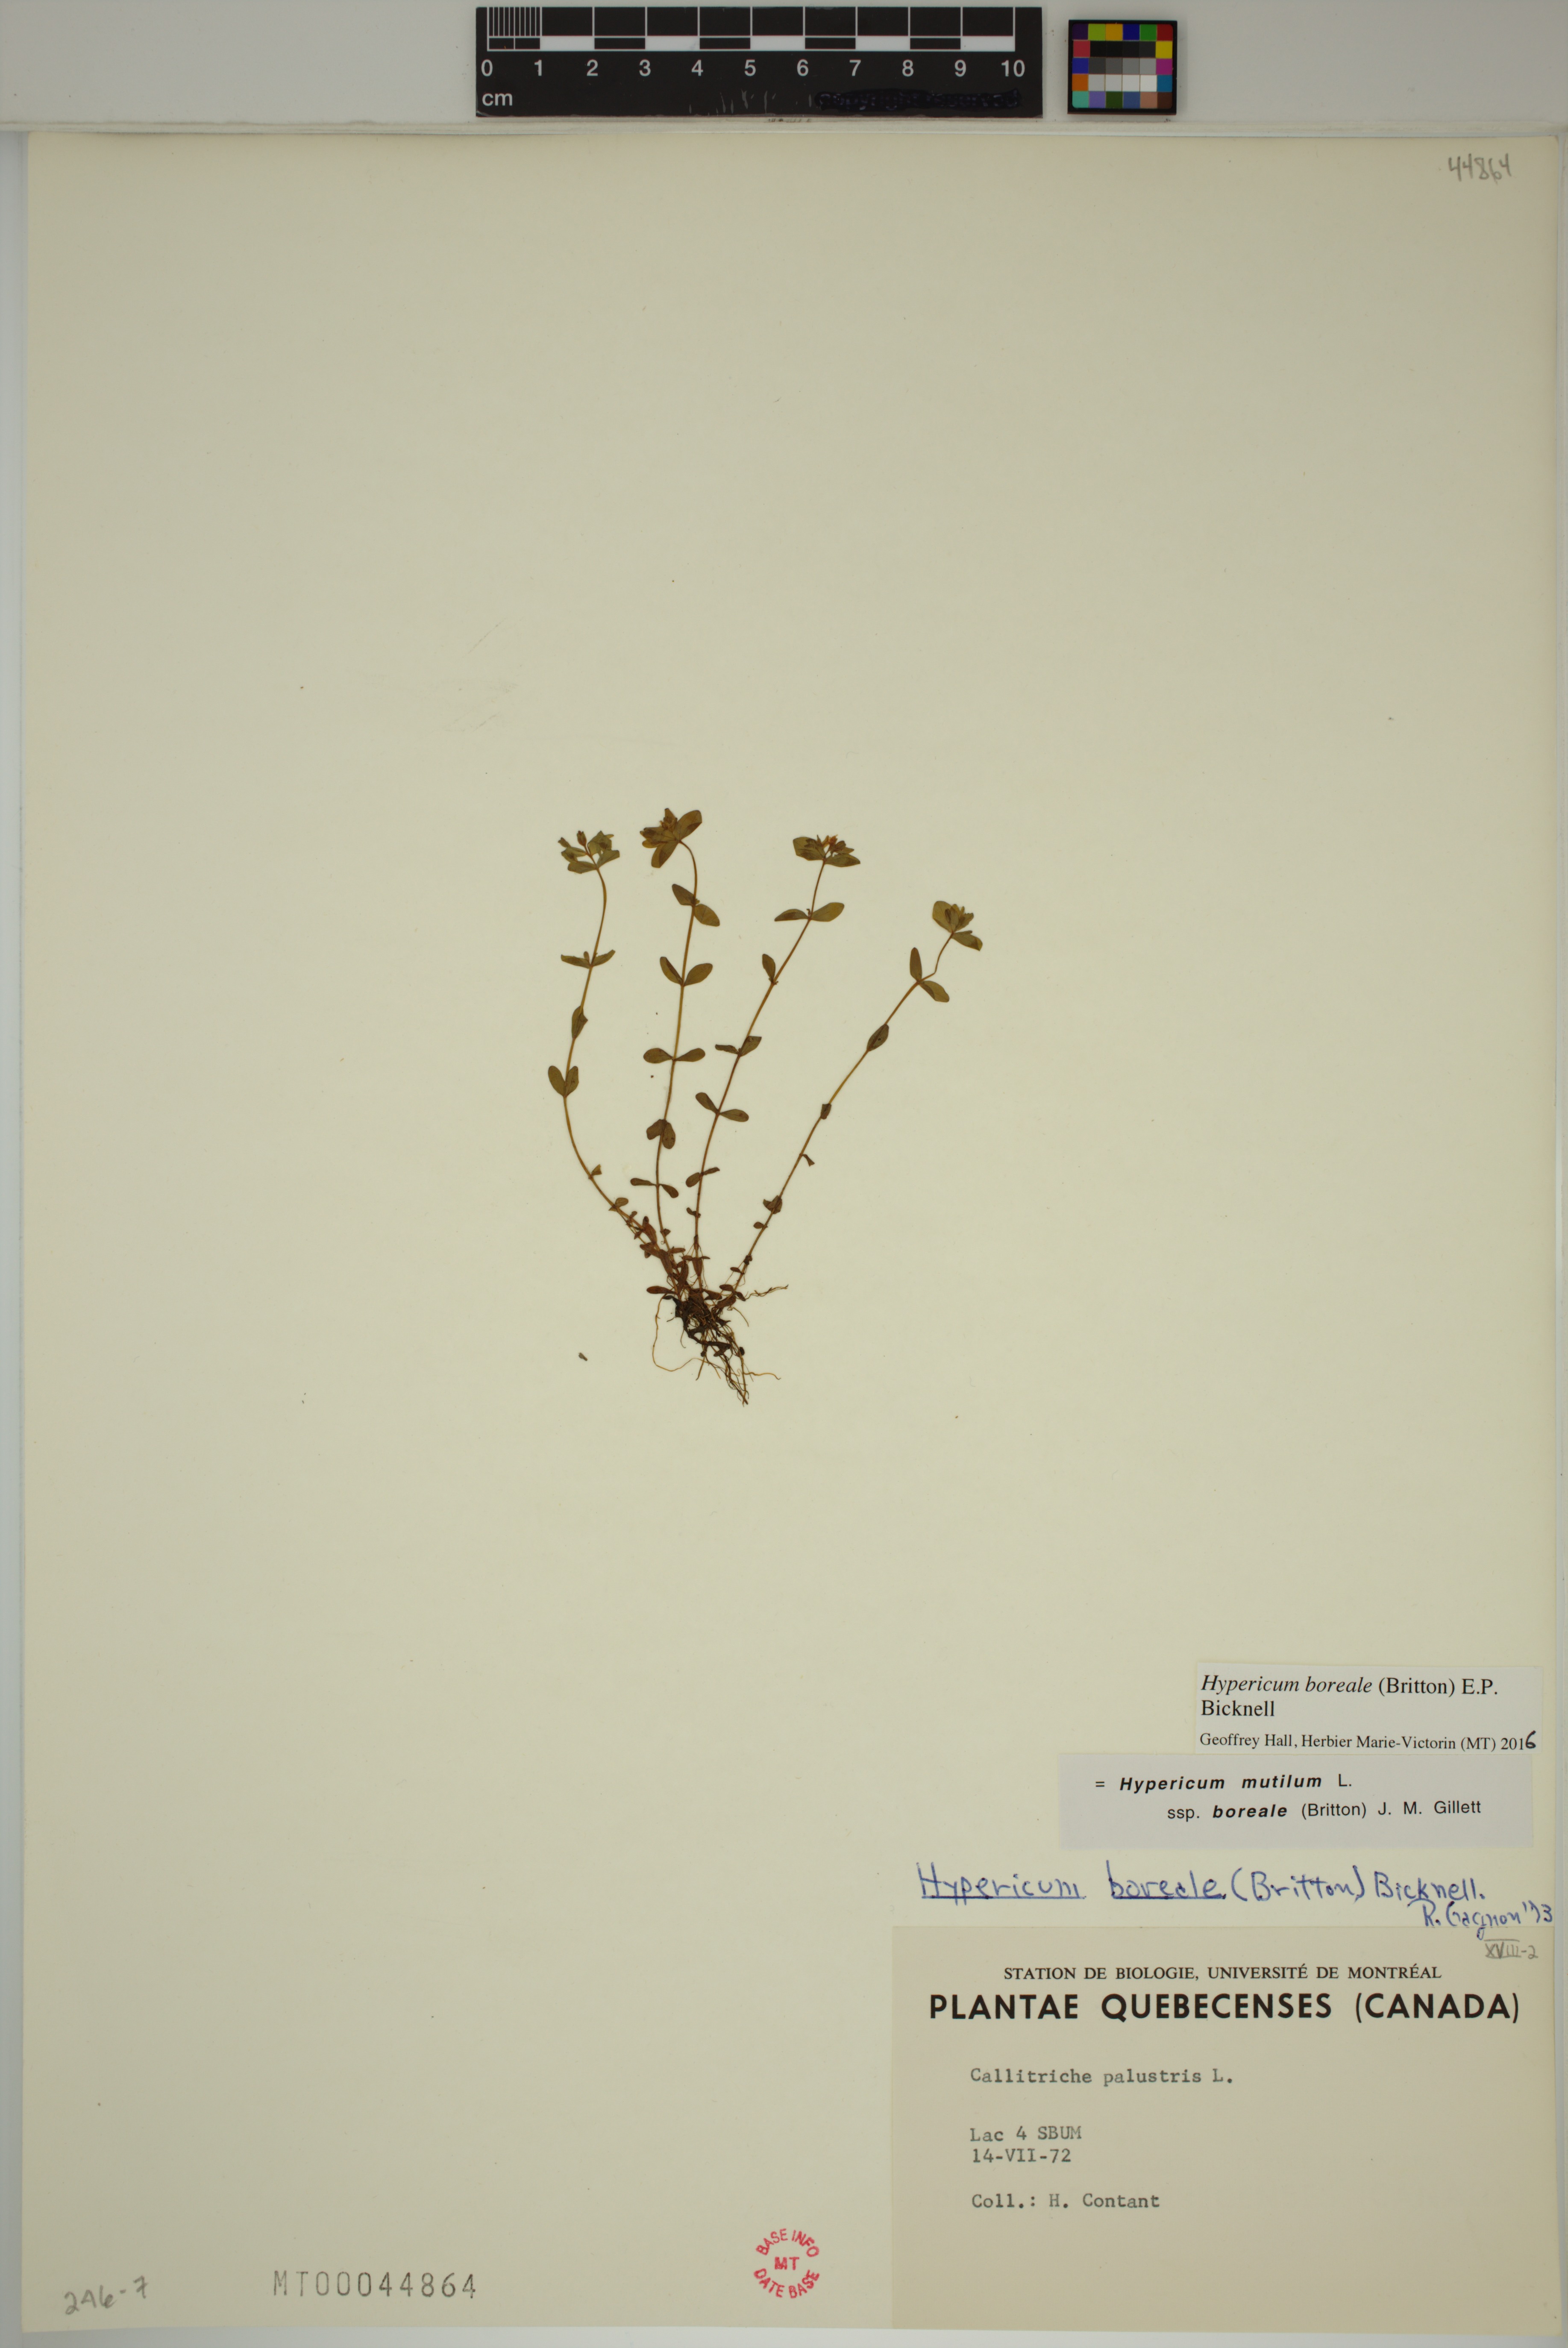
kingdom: Plantae
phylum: Tracheophyta
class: Magnoliopsida
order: Malpighiales
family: Hypericaceae
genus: Hypericum
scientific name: Hypericum boreale
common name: Northern bog st. john's-wort
